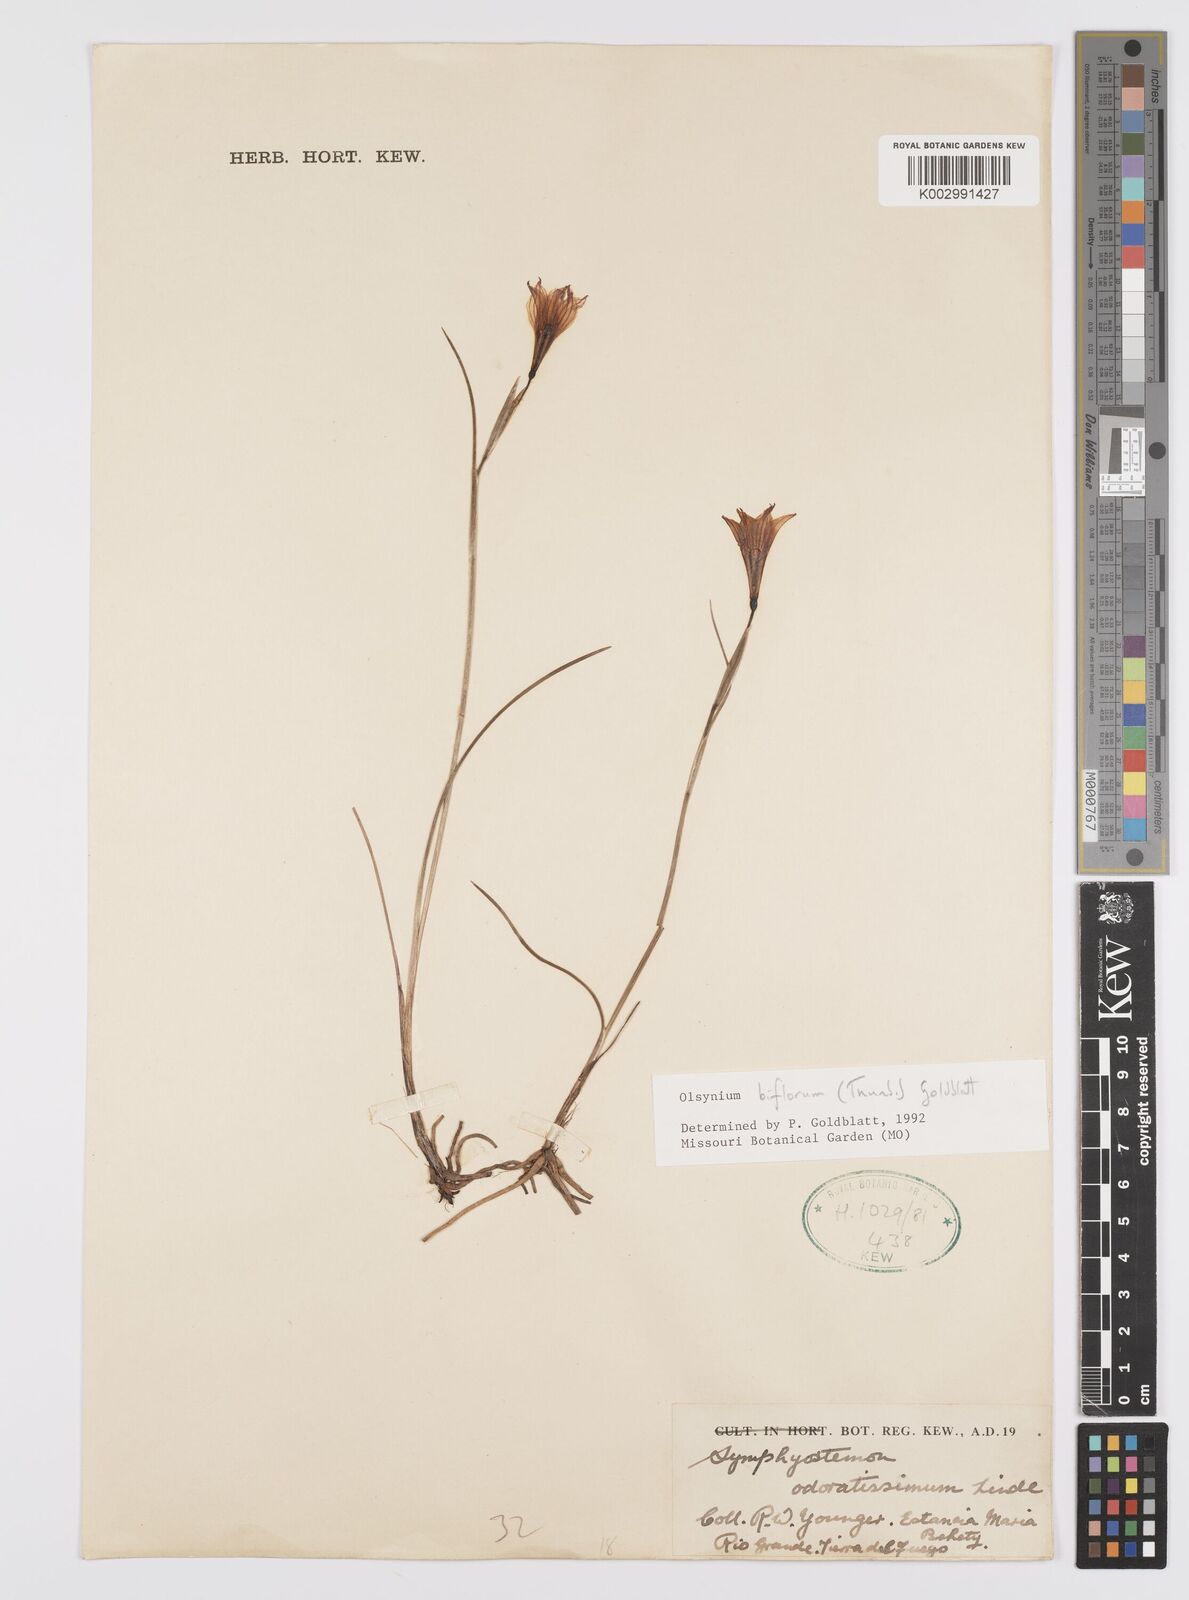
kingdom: Plantae
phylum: Tracheophyta
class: Liliopsida
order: Asparagales
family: Iridaceae
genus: Olsynium
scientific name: Olsynium biflorum
